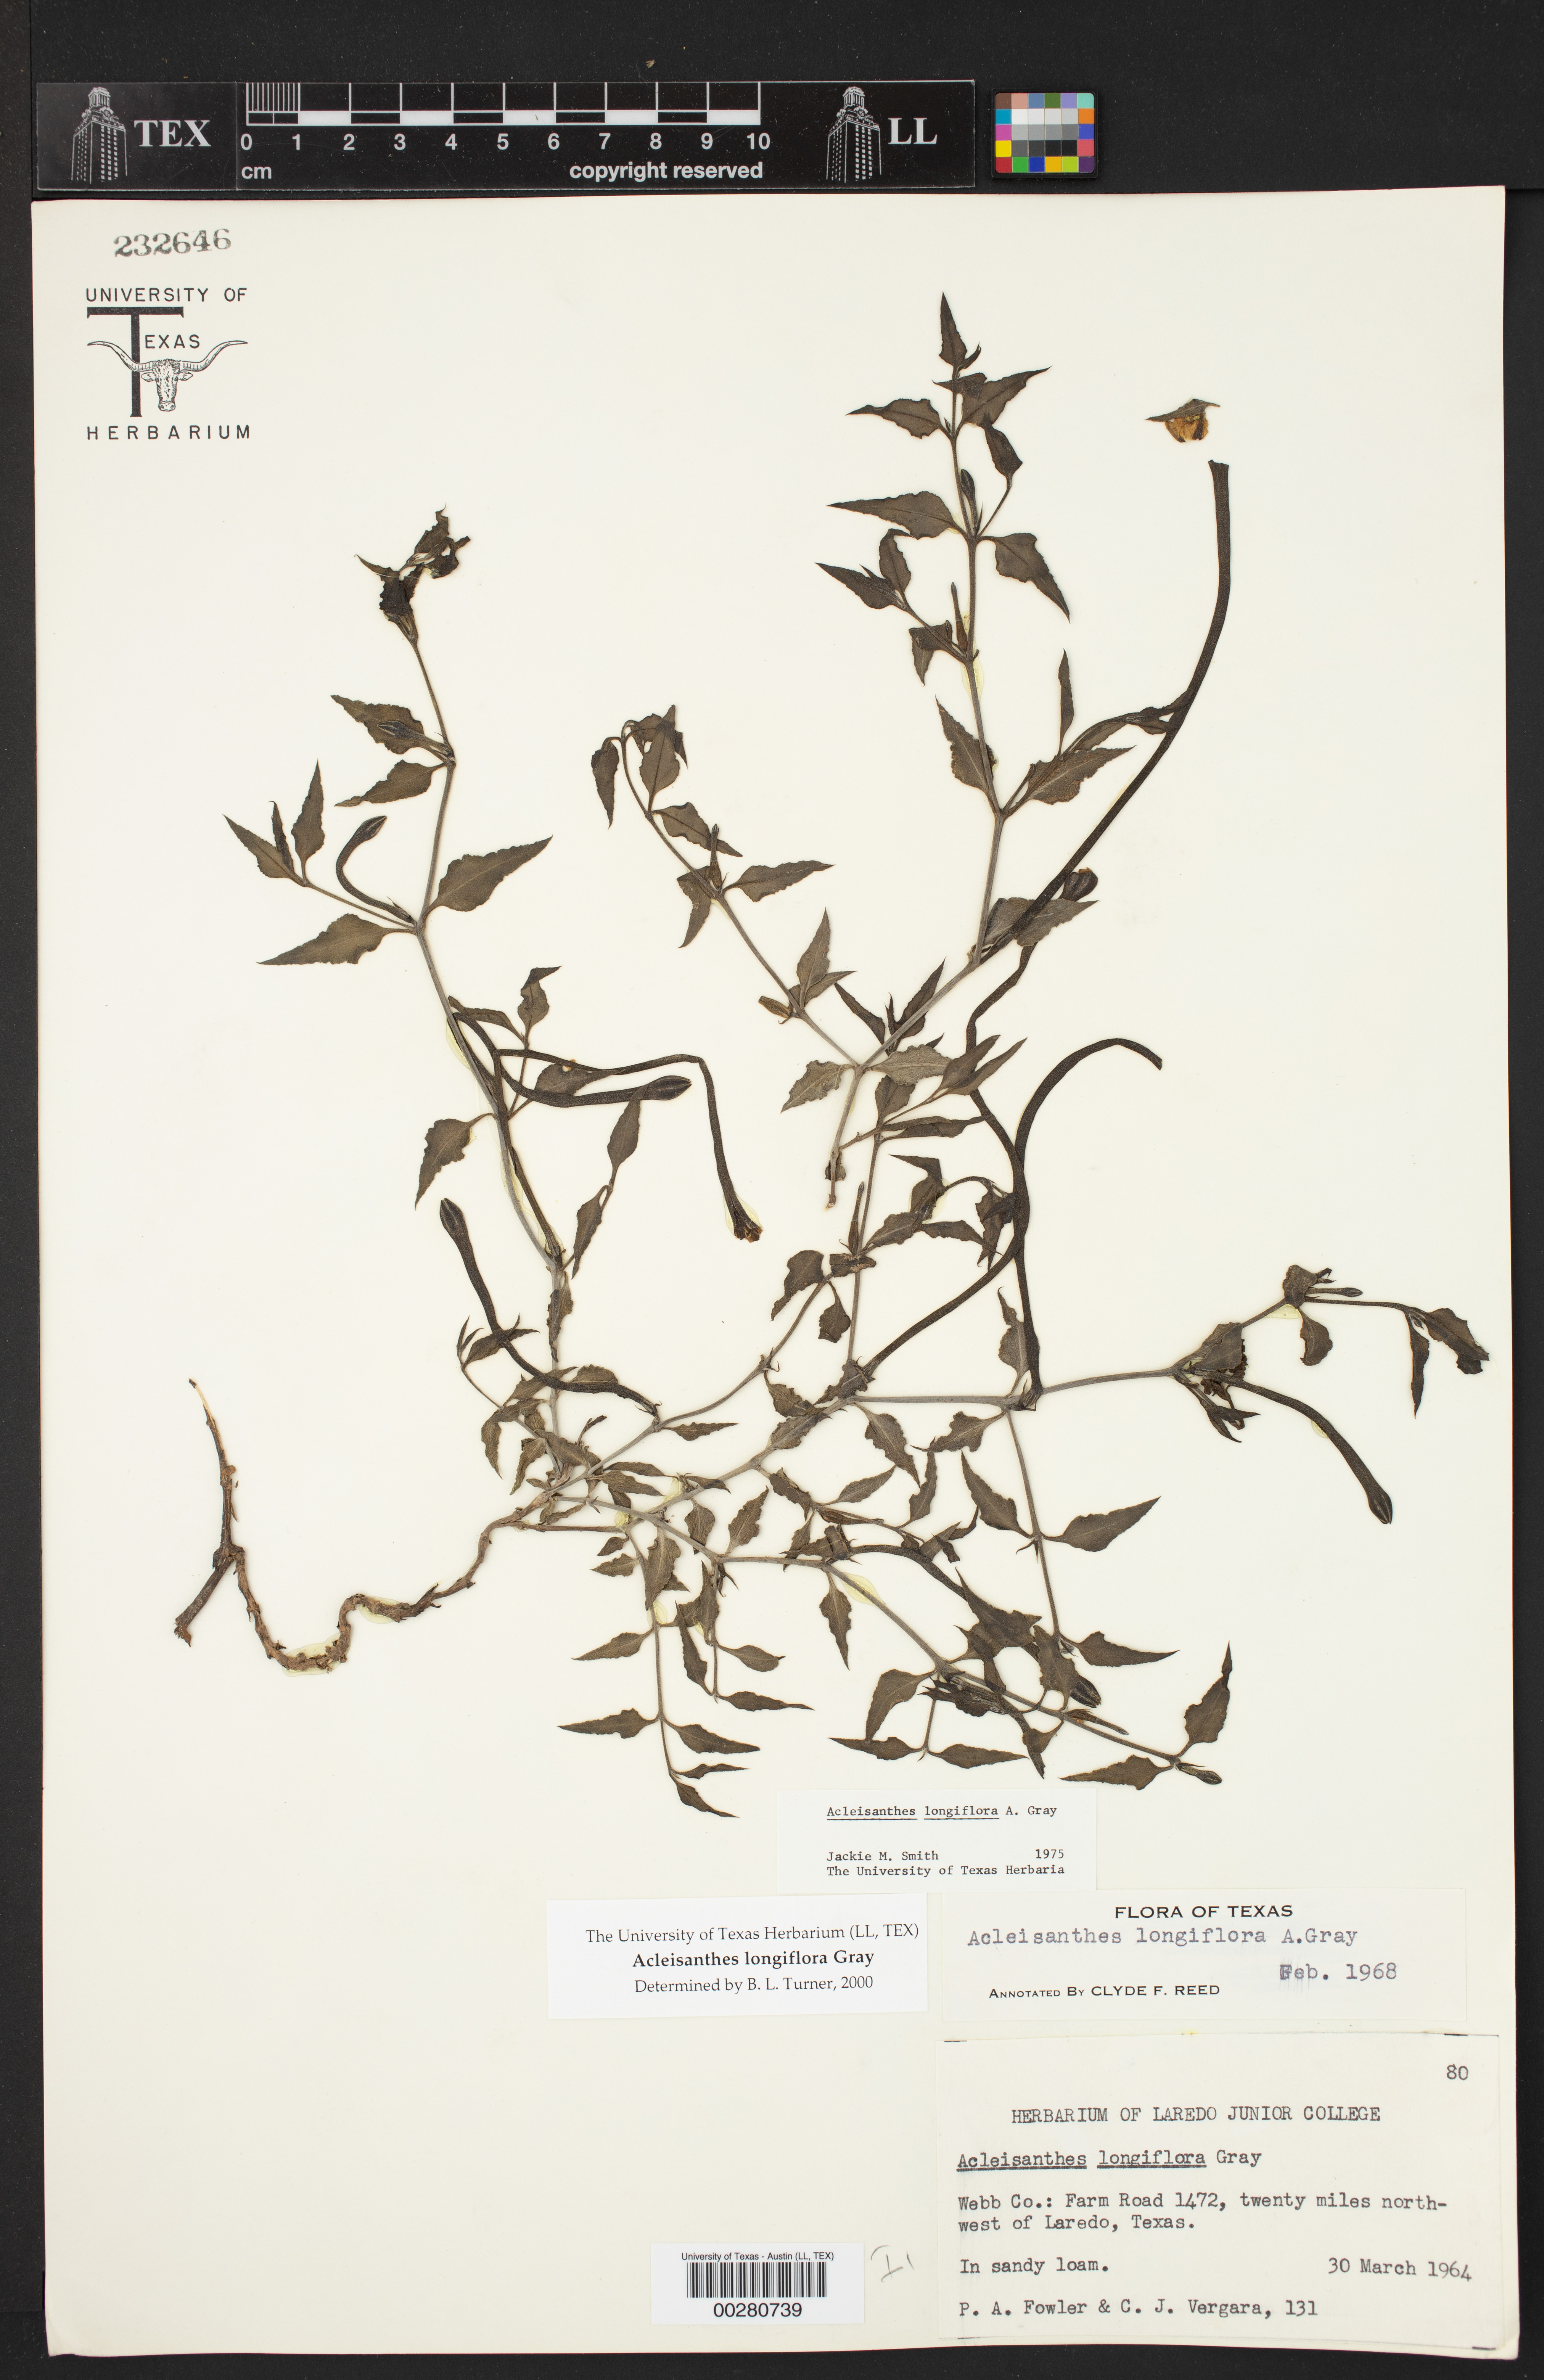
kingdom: Plantae
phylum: Tracheophyta
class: Magnoliopsida
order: Caryophyllales
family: Nyctaginaceae
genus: Acleisanthes
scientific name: Acleisanthes longiflora
